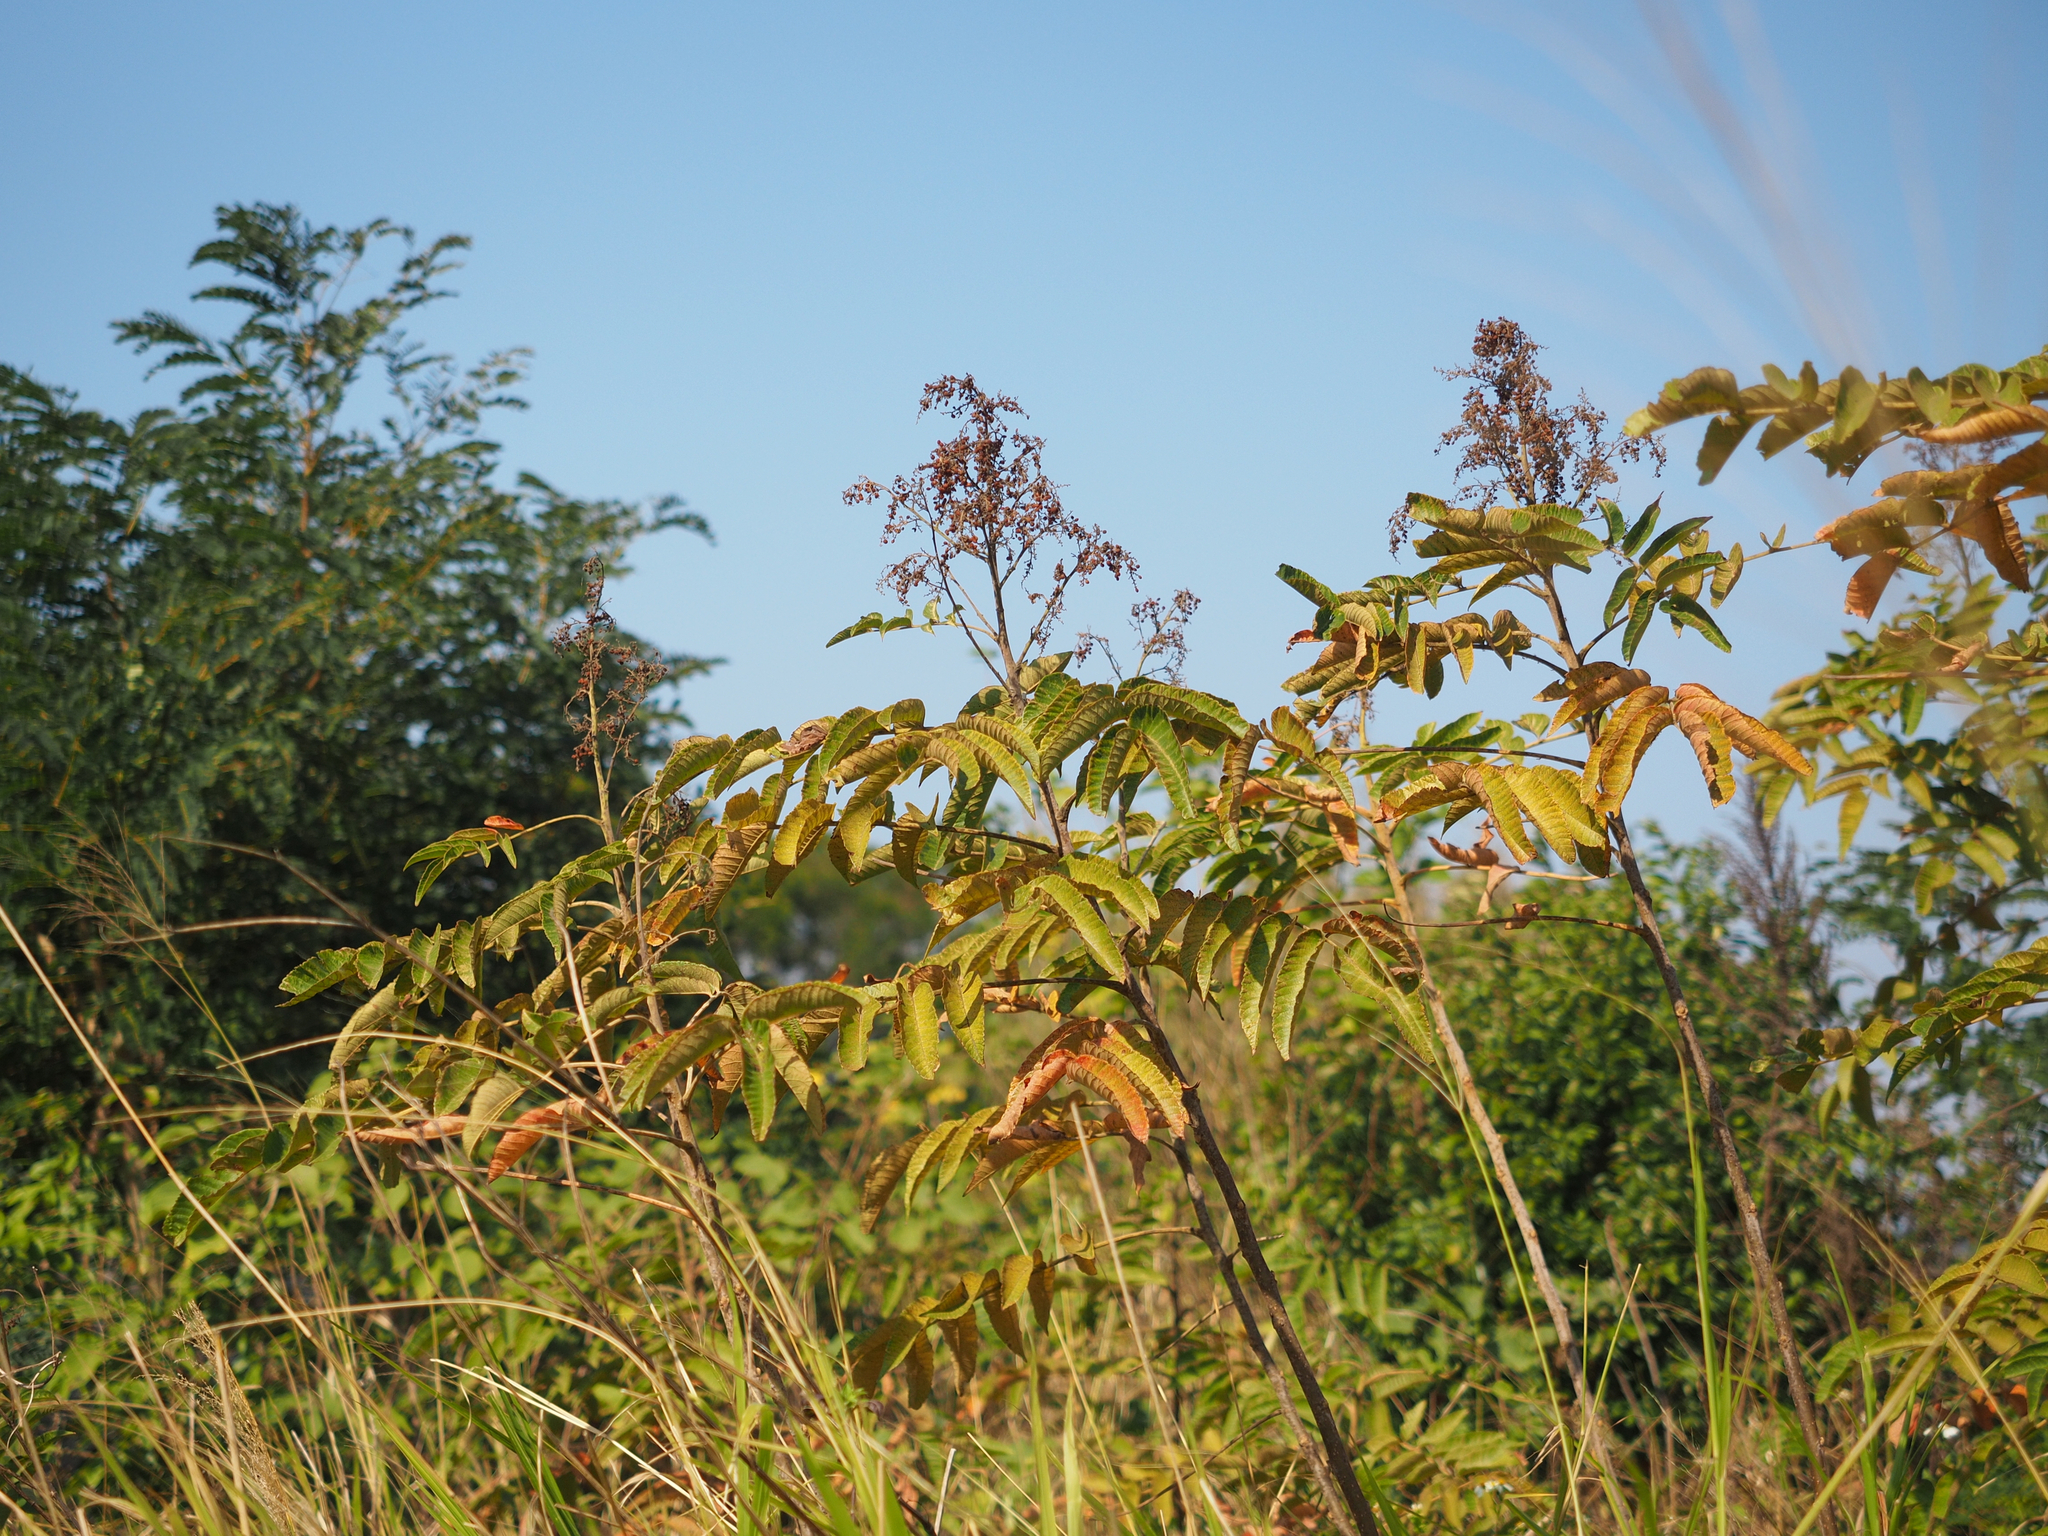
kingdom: Plantae
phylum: Tracheophyta
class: Magnoliopsida
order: Sapindales
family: Anacardiaceae
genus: Rhus
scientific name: Rhus chinensis
